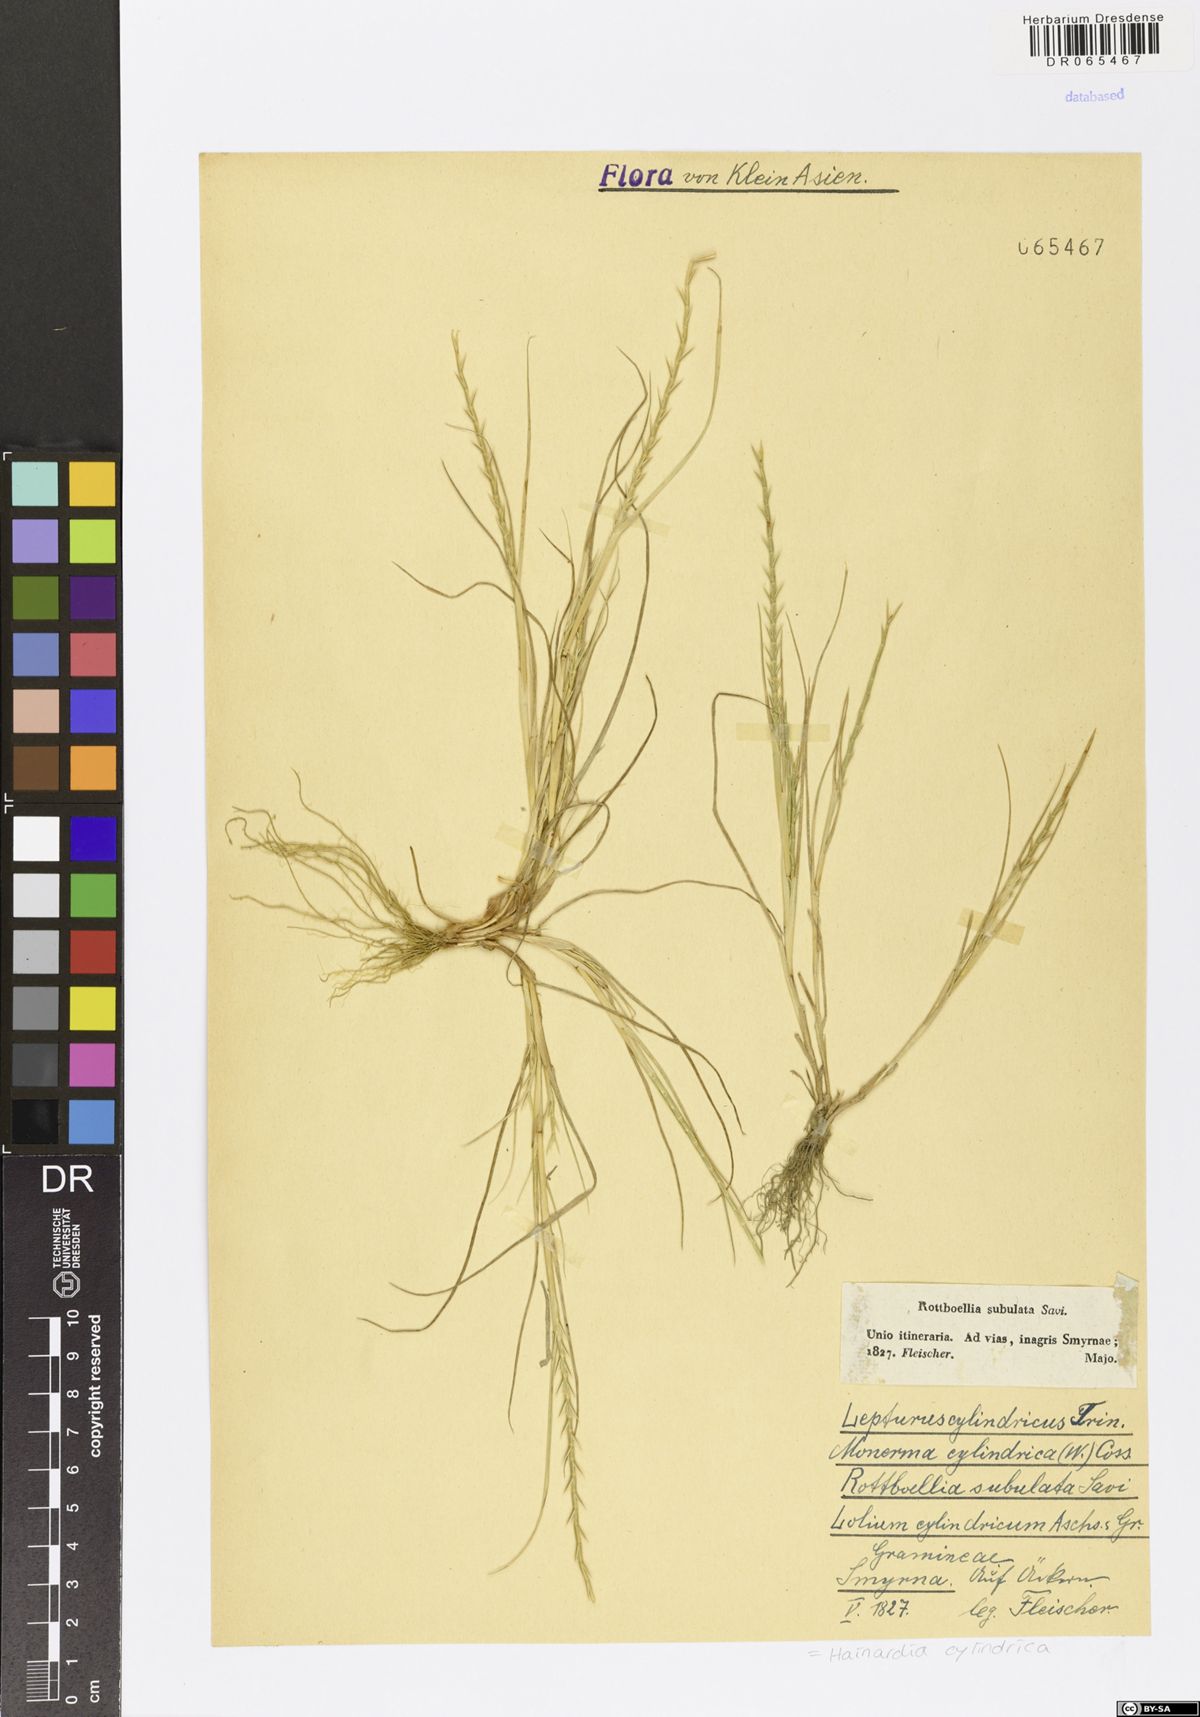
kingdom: Plantae
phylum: Tracheophyta
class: Liliopsida
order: Poales
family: Poaceae
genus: Parapholis
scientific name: Parapholis cylindrica
